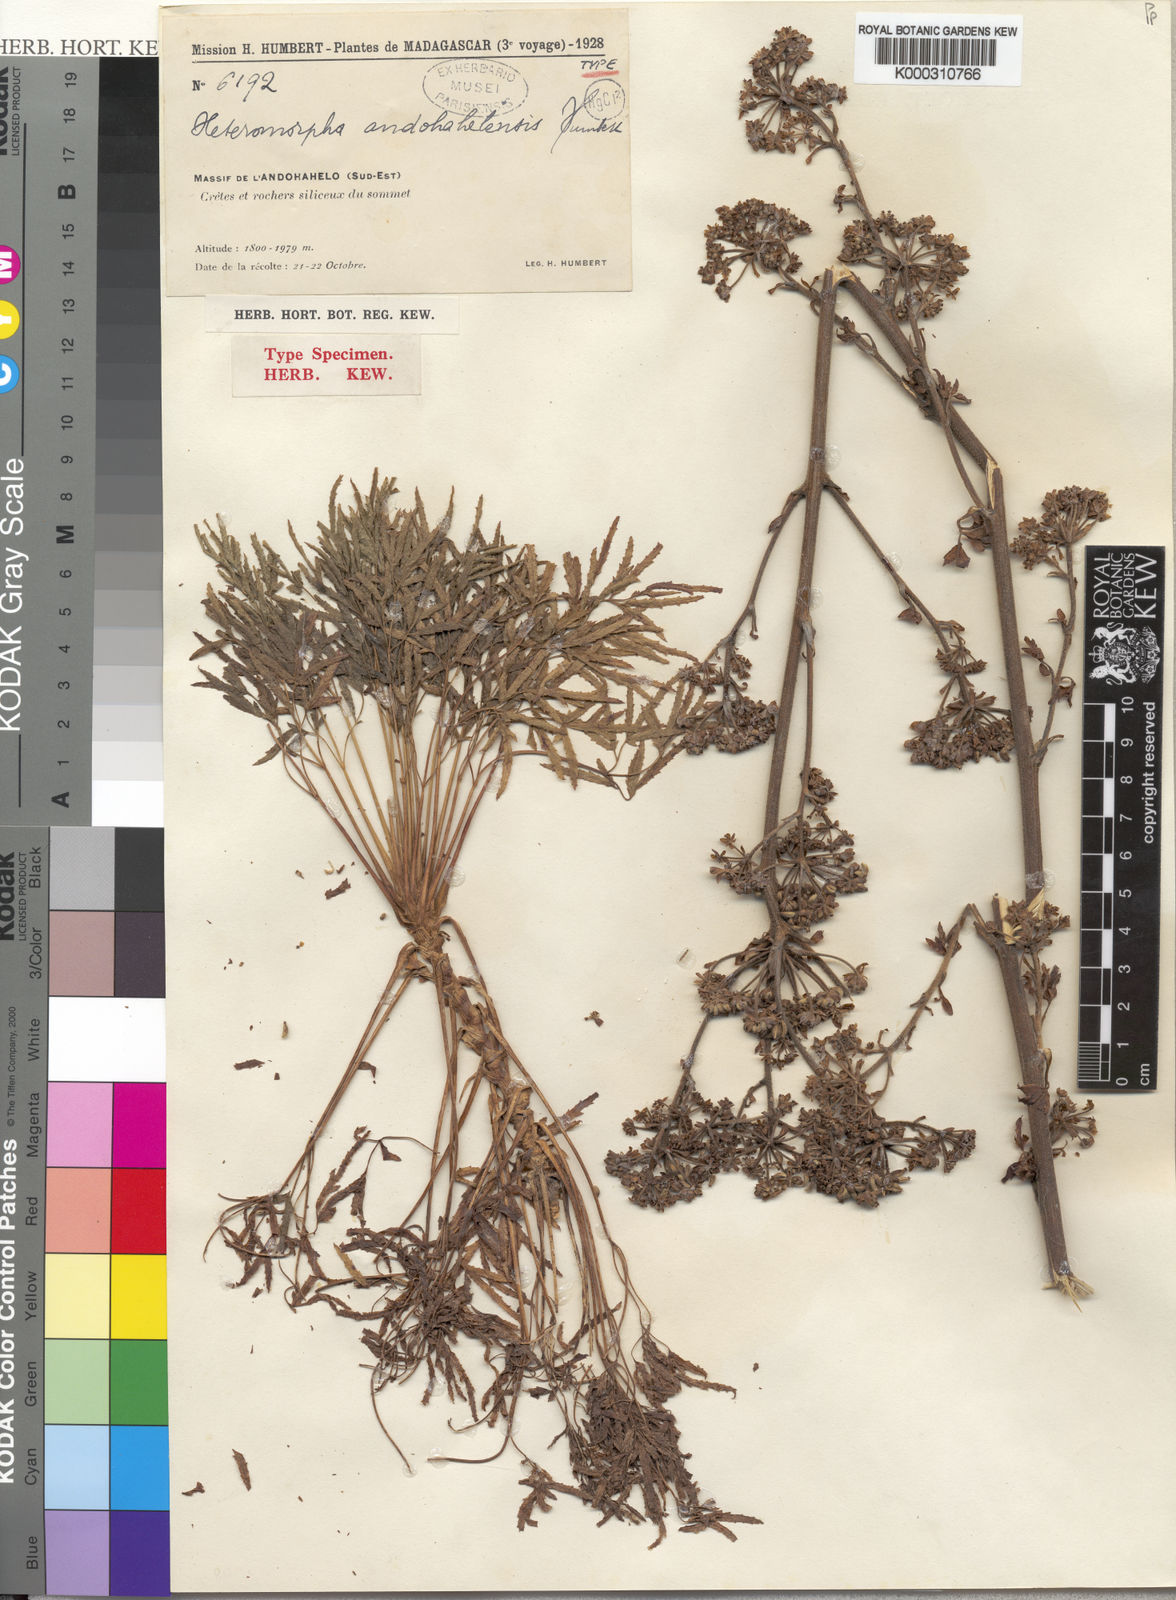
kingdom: Plantae
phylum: Tracheophyta
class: Magnoliopsida
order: Apiales
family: Apiaceae
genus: Cannaboides
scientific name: Cannaboides andohahelensis
